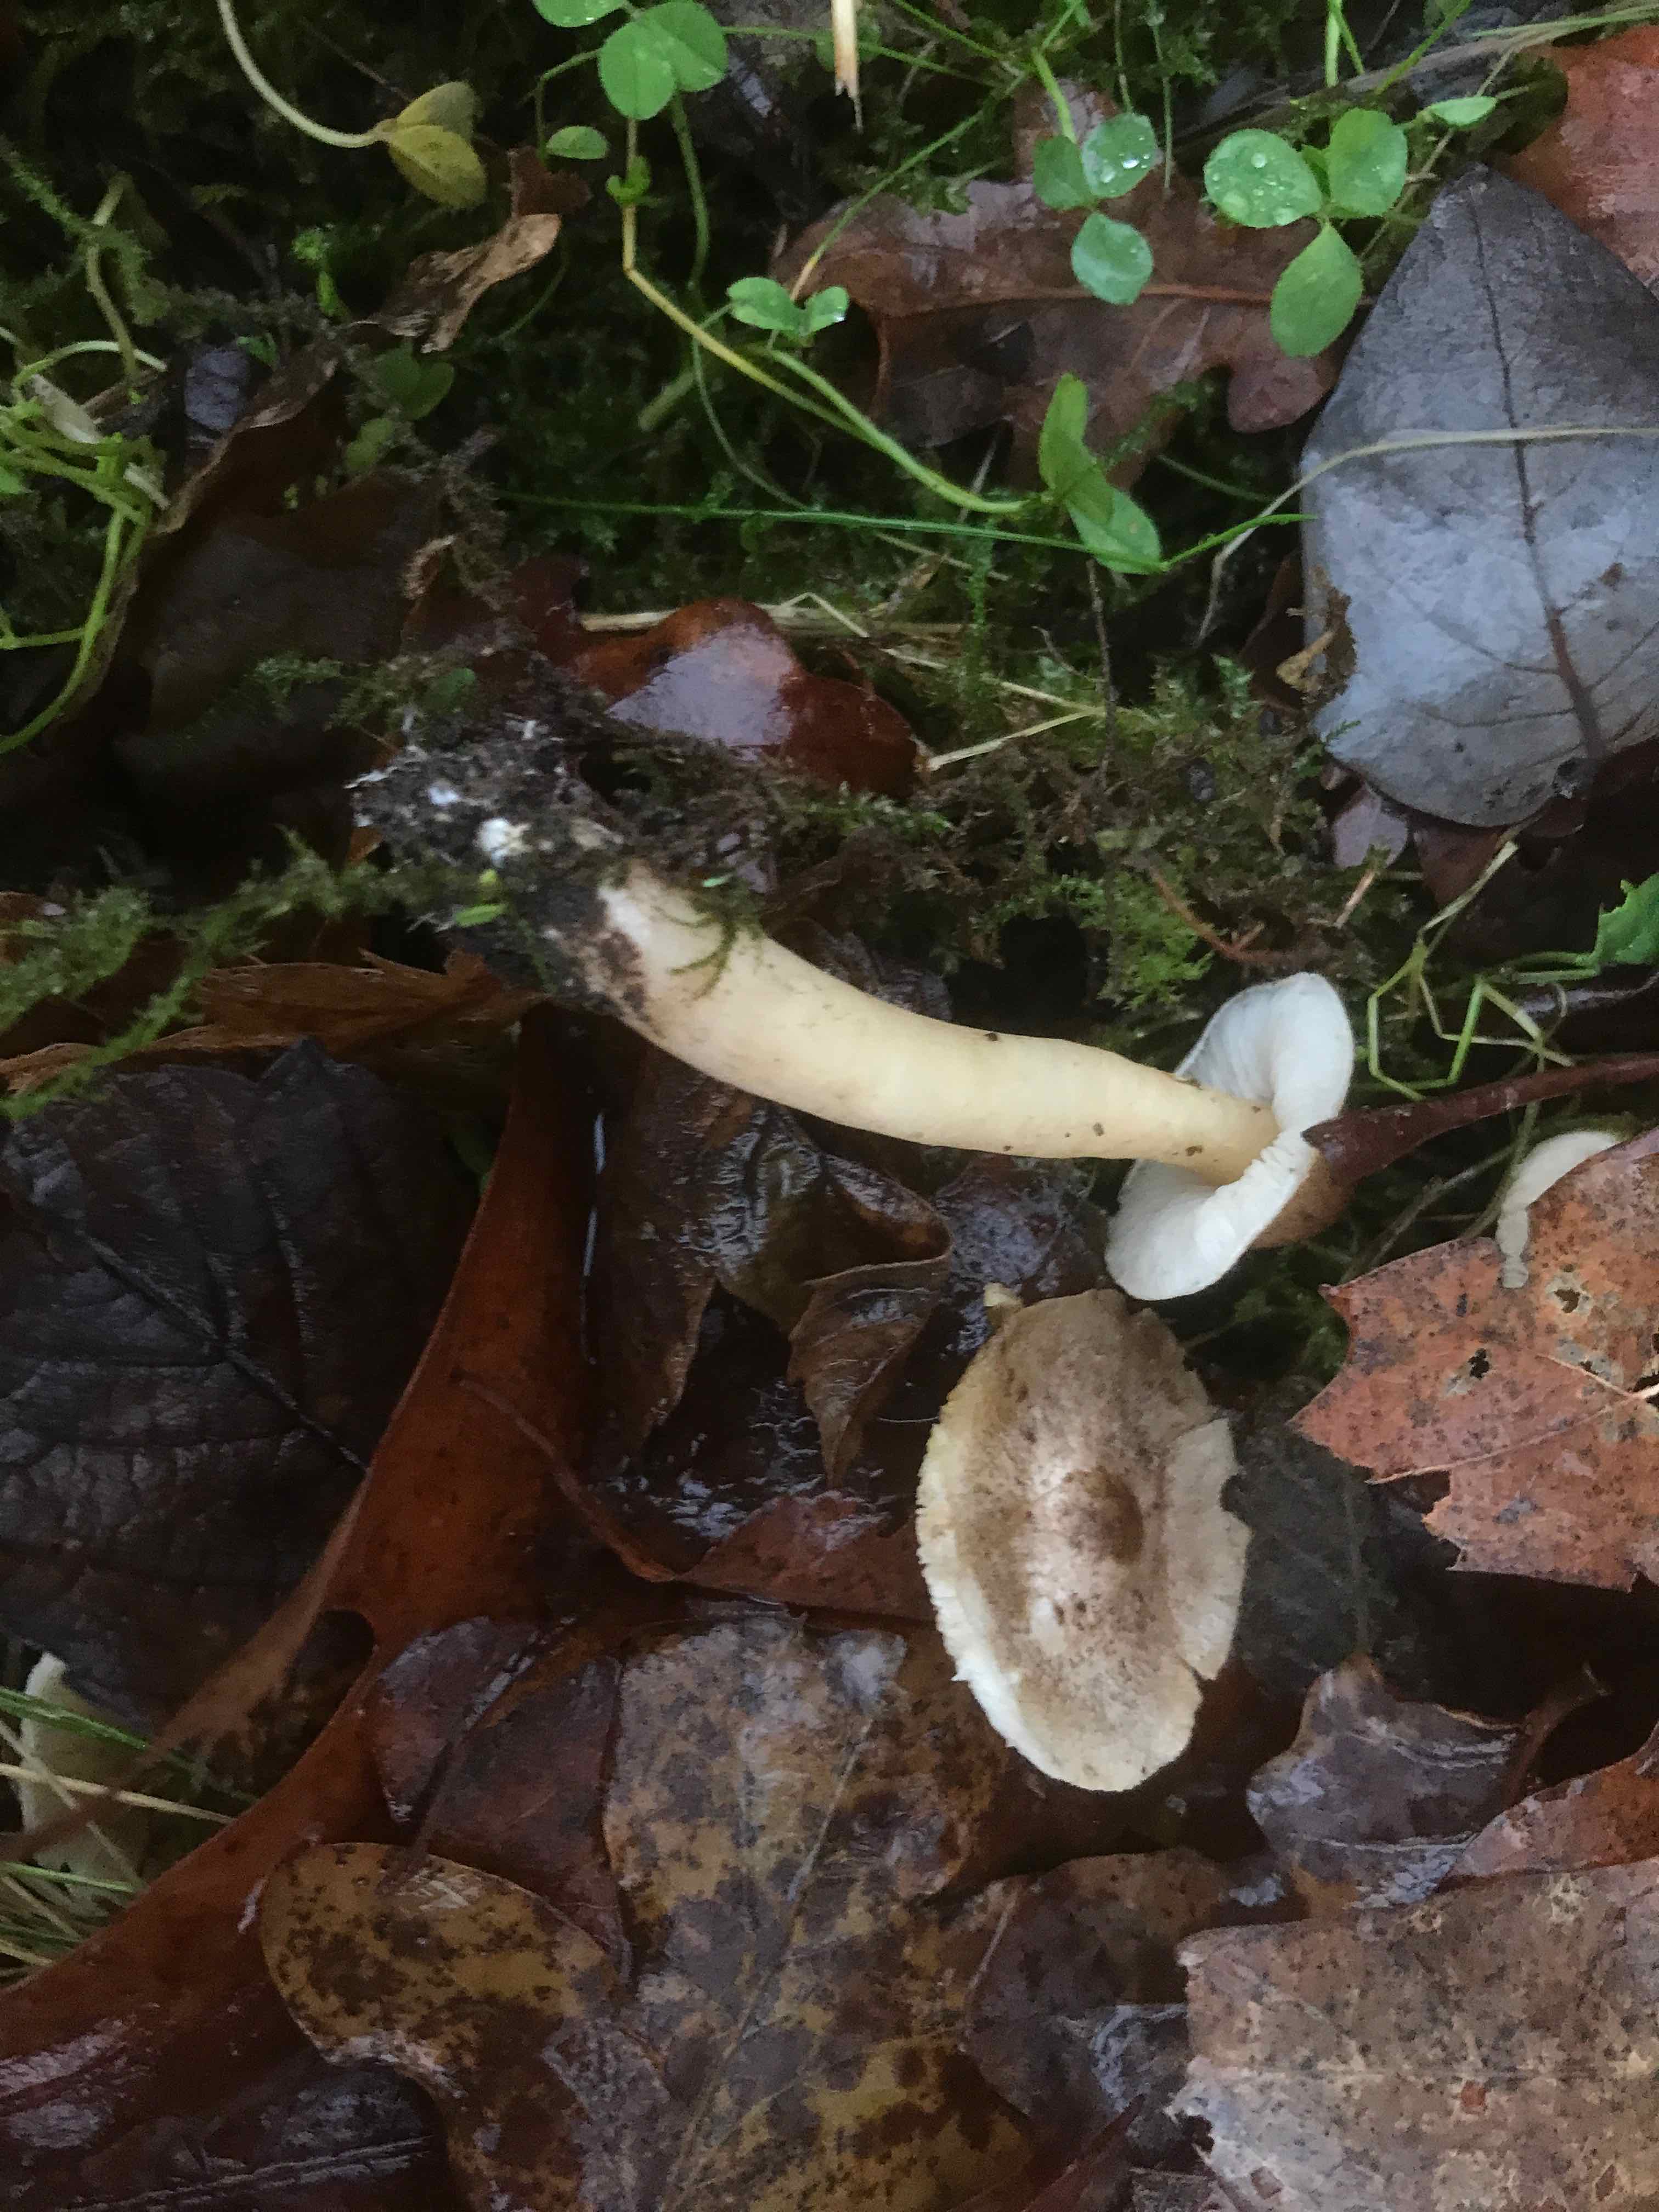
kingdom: Fungi
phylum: Basidiomycota
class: Agaricomycetes
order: Agaricales
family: Tricholomataceae
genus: Tricholoma
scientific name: Tricholoma scalpturatum
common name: gulplettet ridderhat
